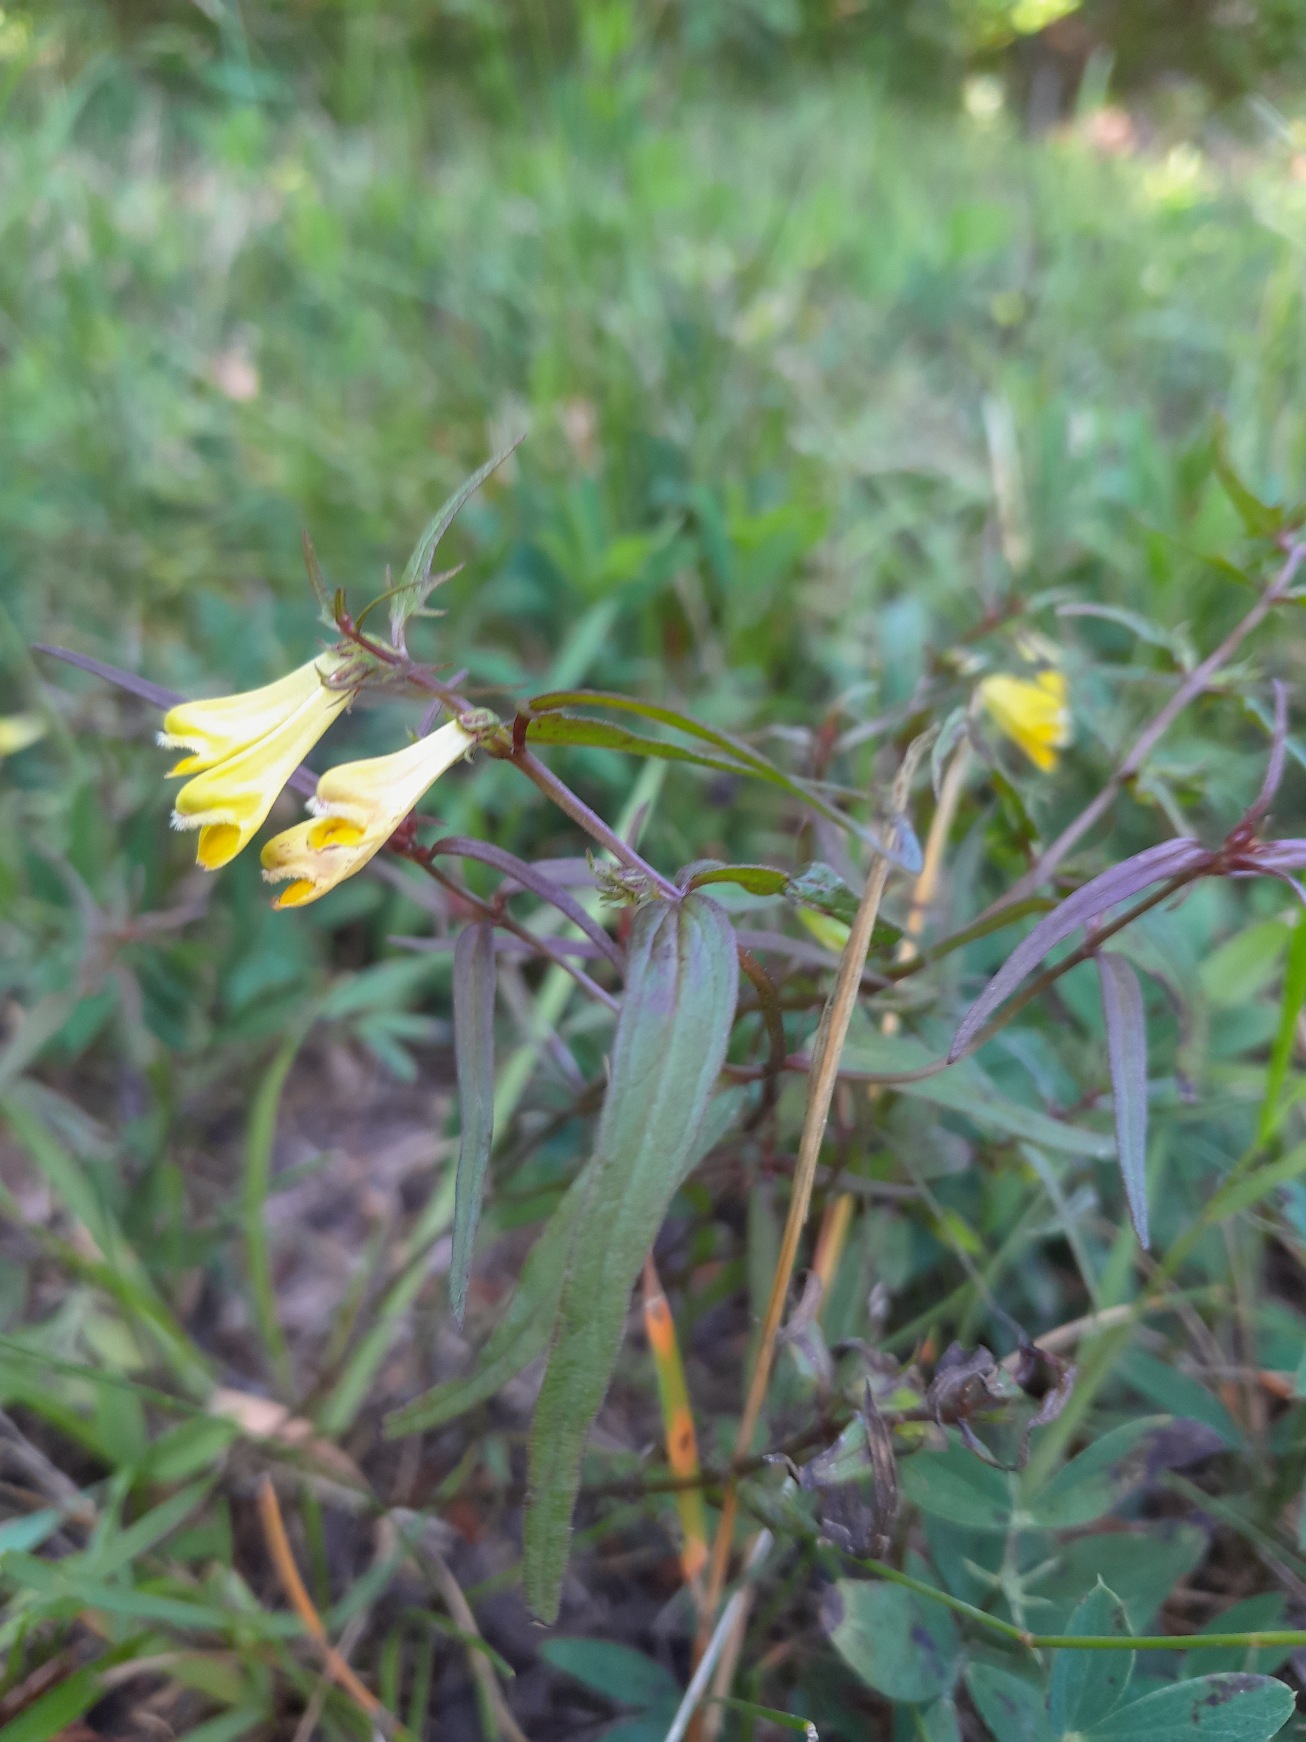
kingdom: Plantae
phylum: Tracheophyta
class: Magnoliopsida
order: Lamiales
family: Orobanchaceae
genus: Melampyrum
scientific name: Melampyrum pratense
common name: Almindelig kohvede
